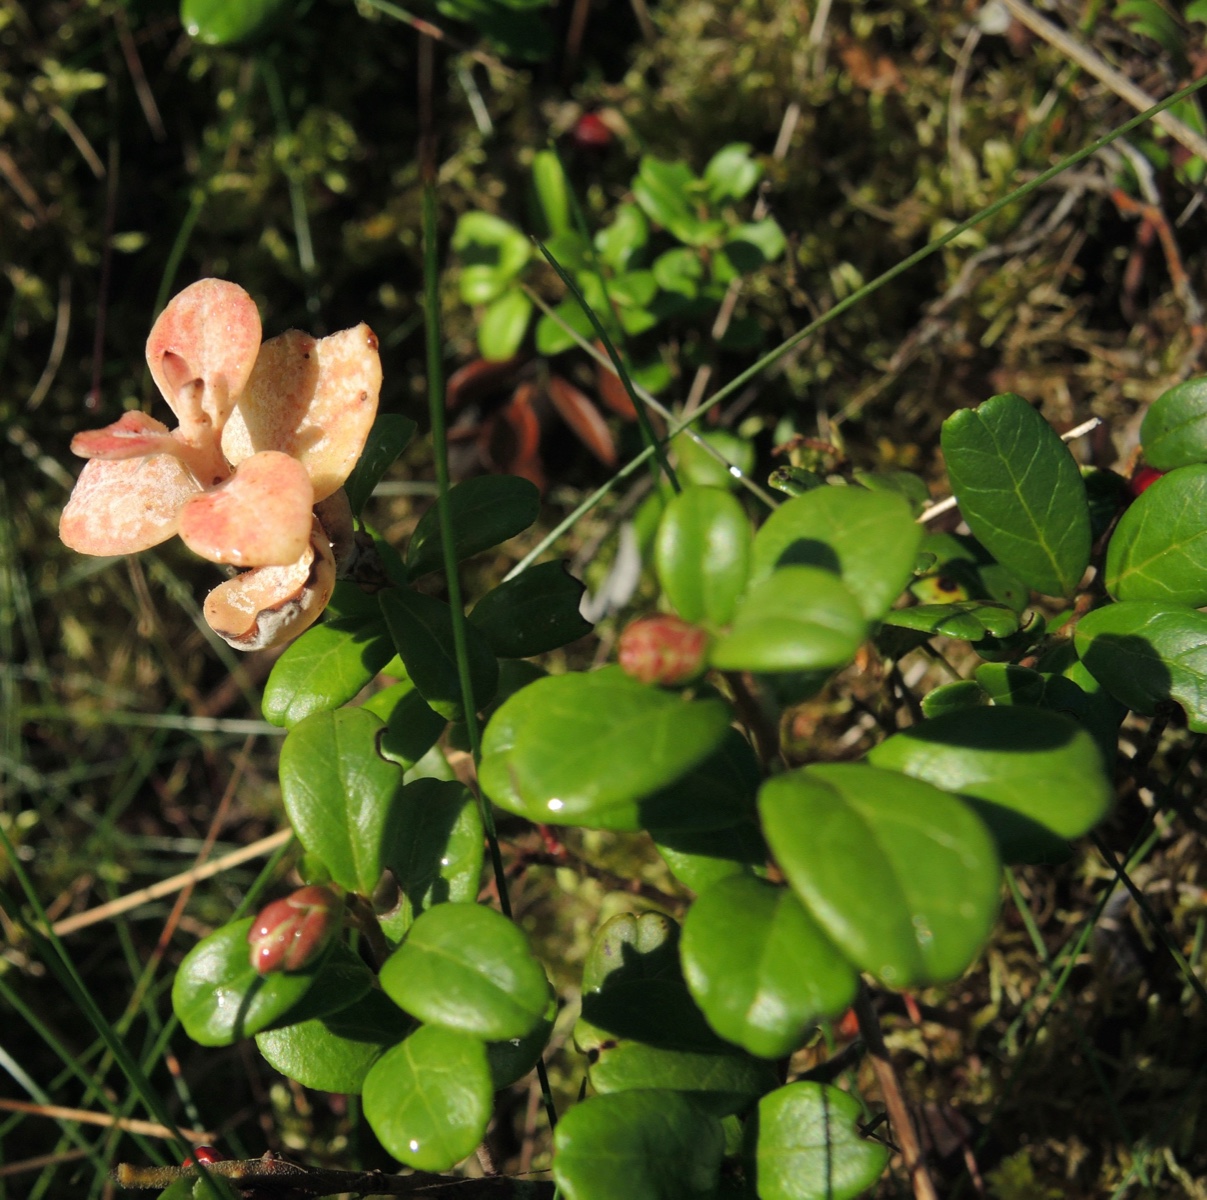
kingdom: Fungi
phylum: Basidiomycota
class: Exobasidiomycetes
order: Exobasidiales
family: Exobasidiaceae
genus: Exobasidium
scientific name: Exobasidium vaccinii
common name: tyttebærblad-bøllesvamp
